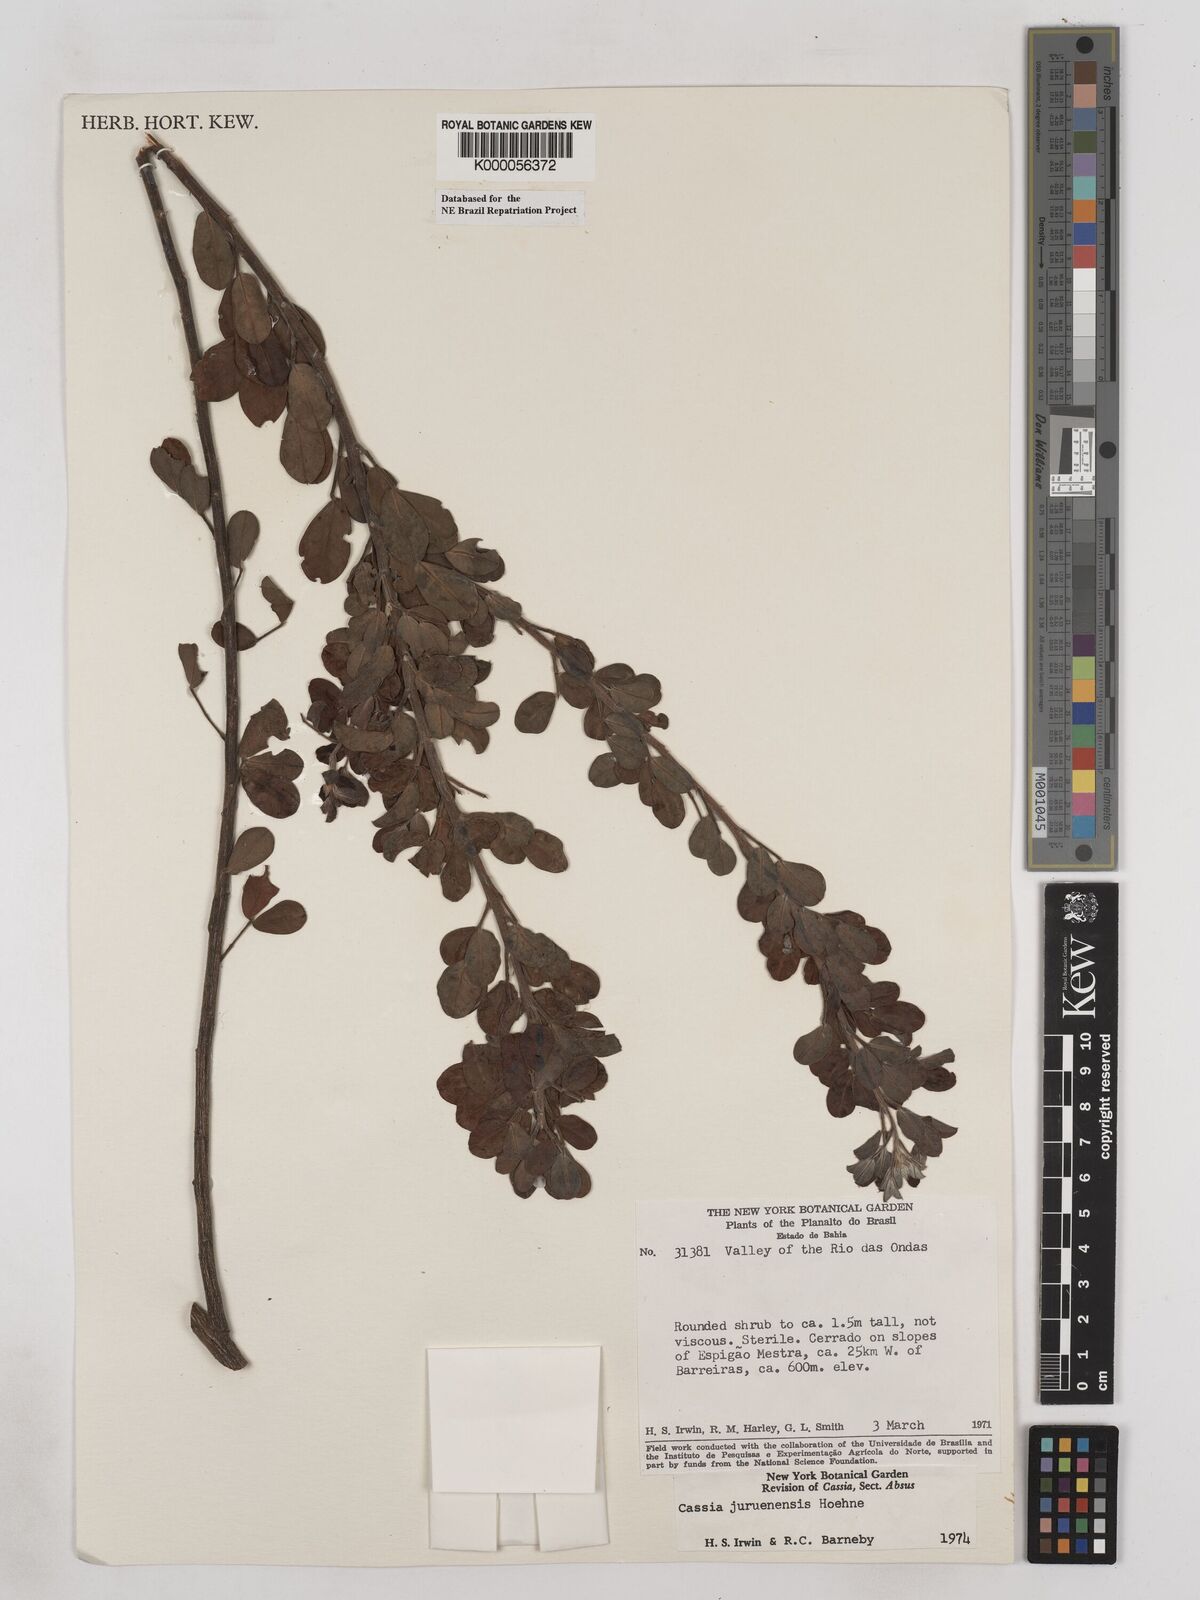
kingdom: Plantae
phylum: Tracheophyta
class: Magnoliopsida
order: Fabales
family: Fabaceae
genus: Chamaecrista
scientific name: Chamaecrista juruenensis
